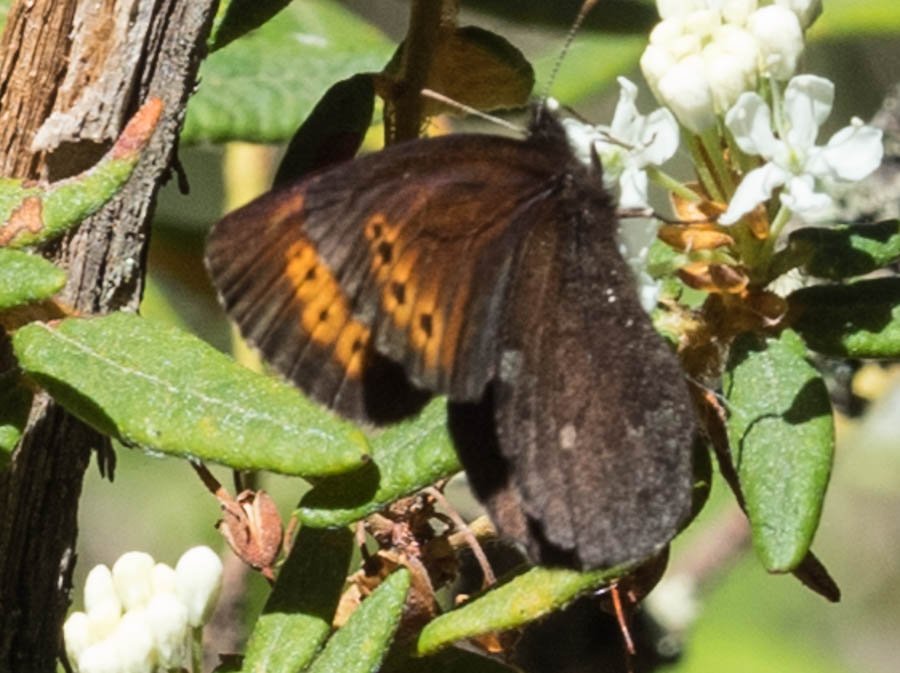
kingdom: Animalia
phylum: Arthropoda
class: Insecta
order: Lepidoptera
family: Nymphalidae
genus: Erebia
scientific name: Erebia disa
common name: Taiga Alpine
